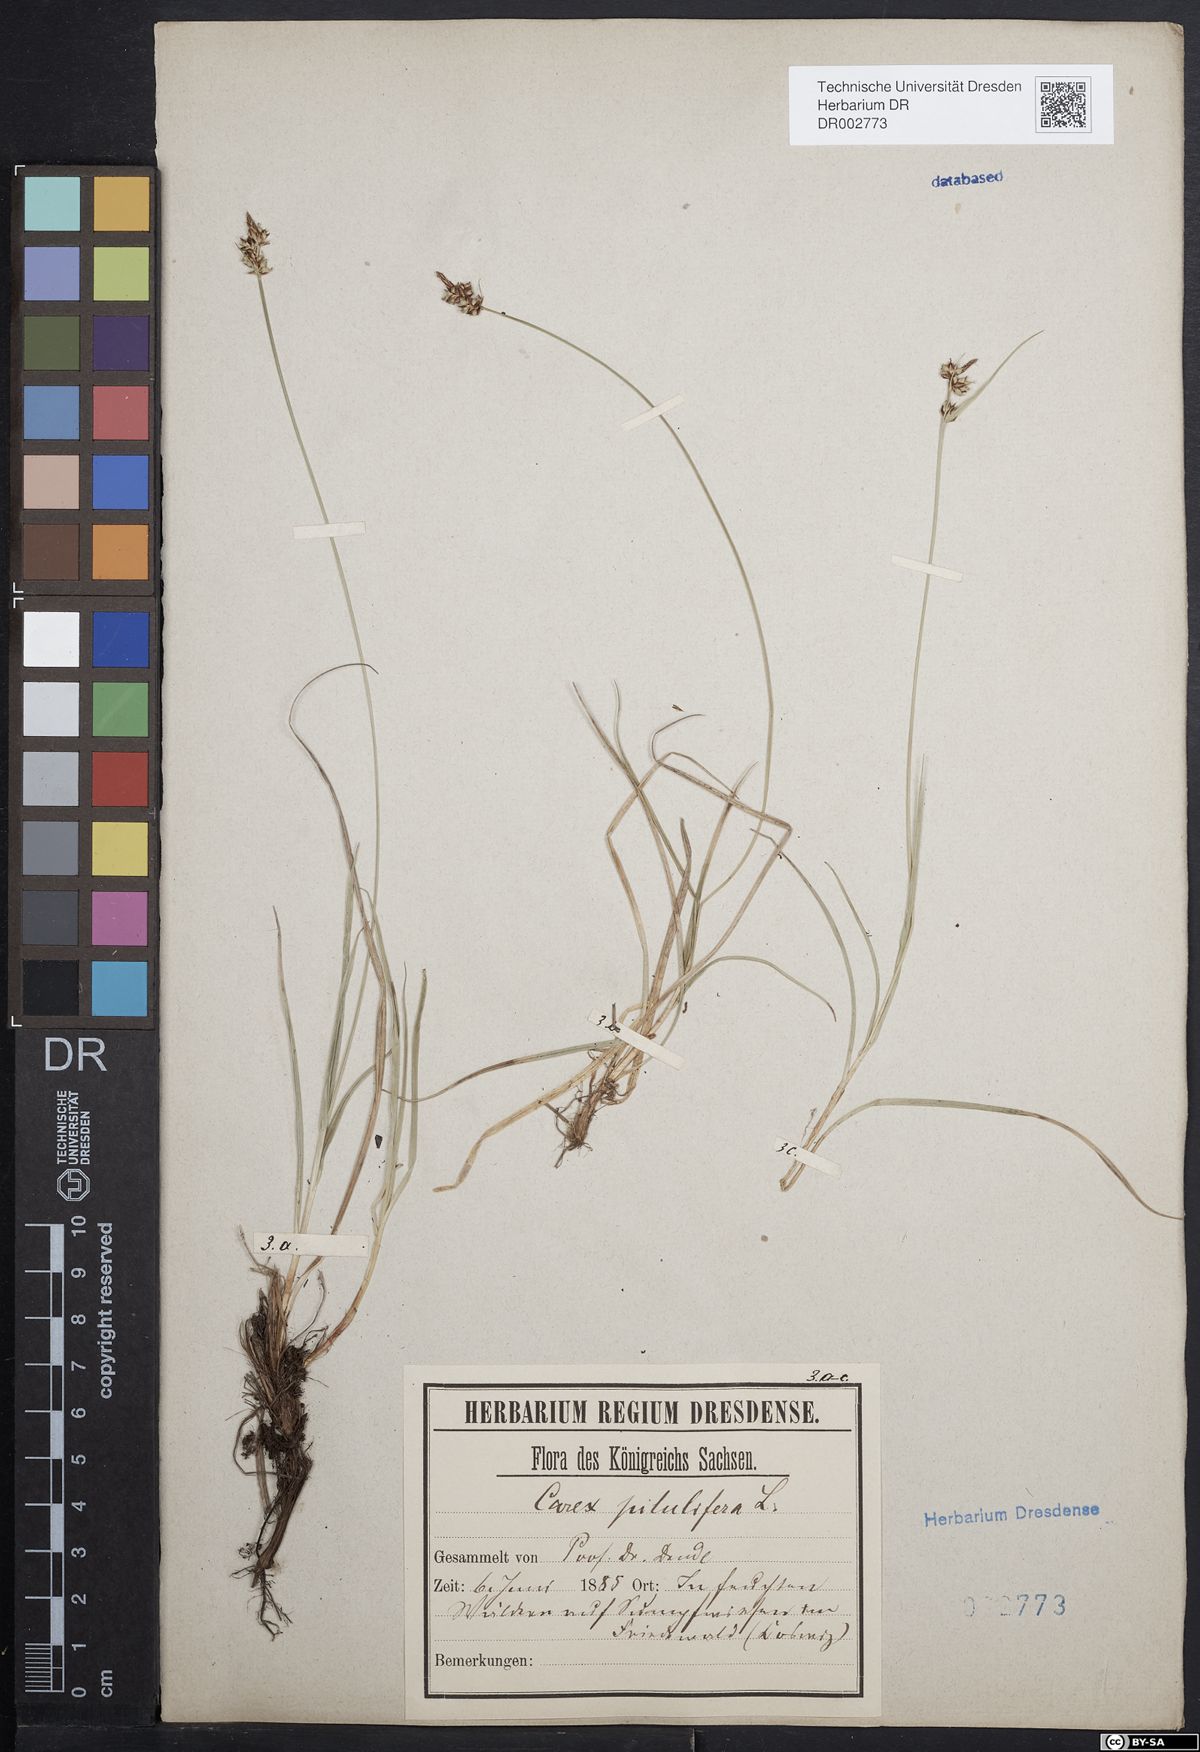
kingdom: Plantae
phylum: Tracheophyta
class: Liliopsida
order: Poales
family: Cyperaceae
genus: Carex
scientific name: Carex caryophyllea
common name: Spring sedge
